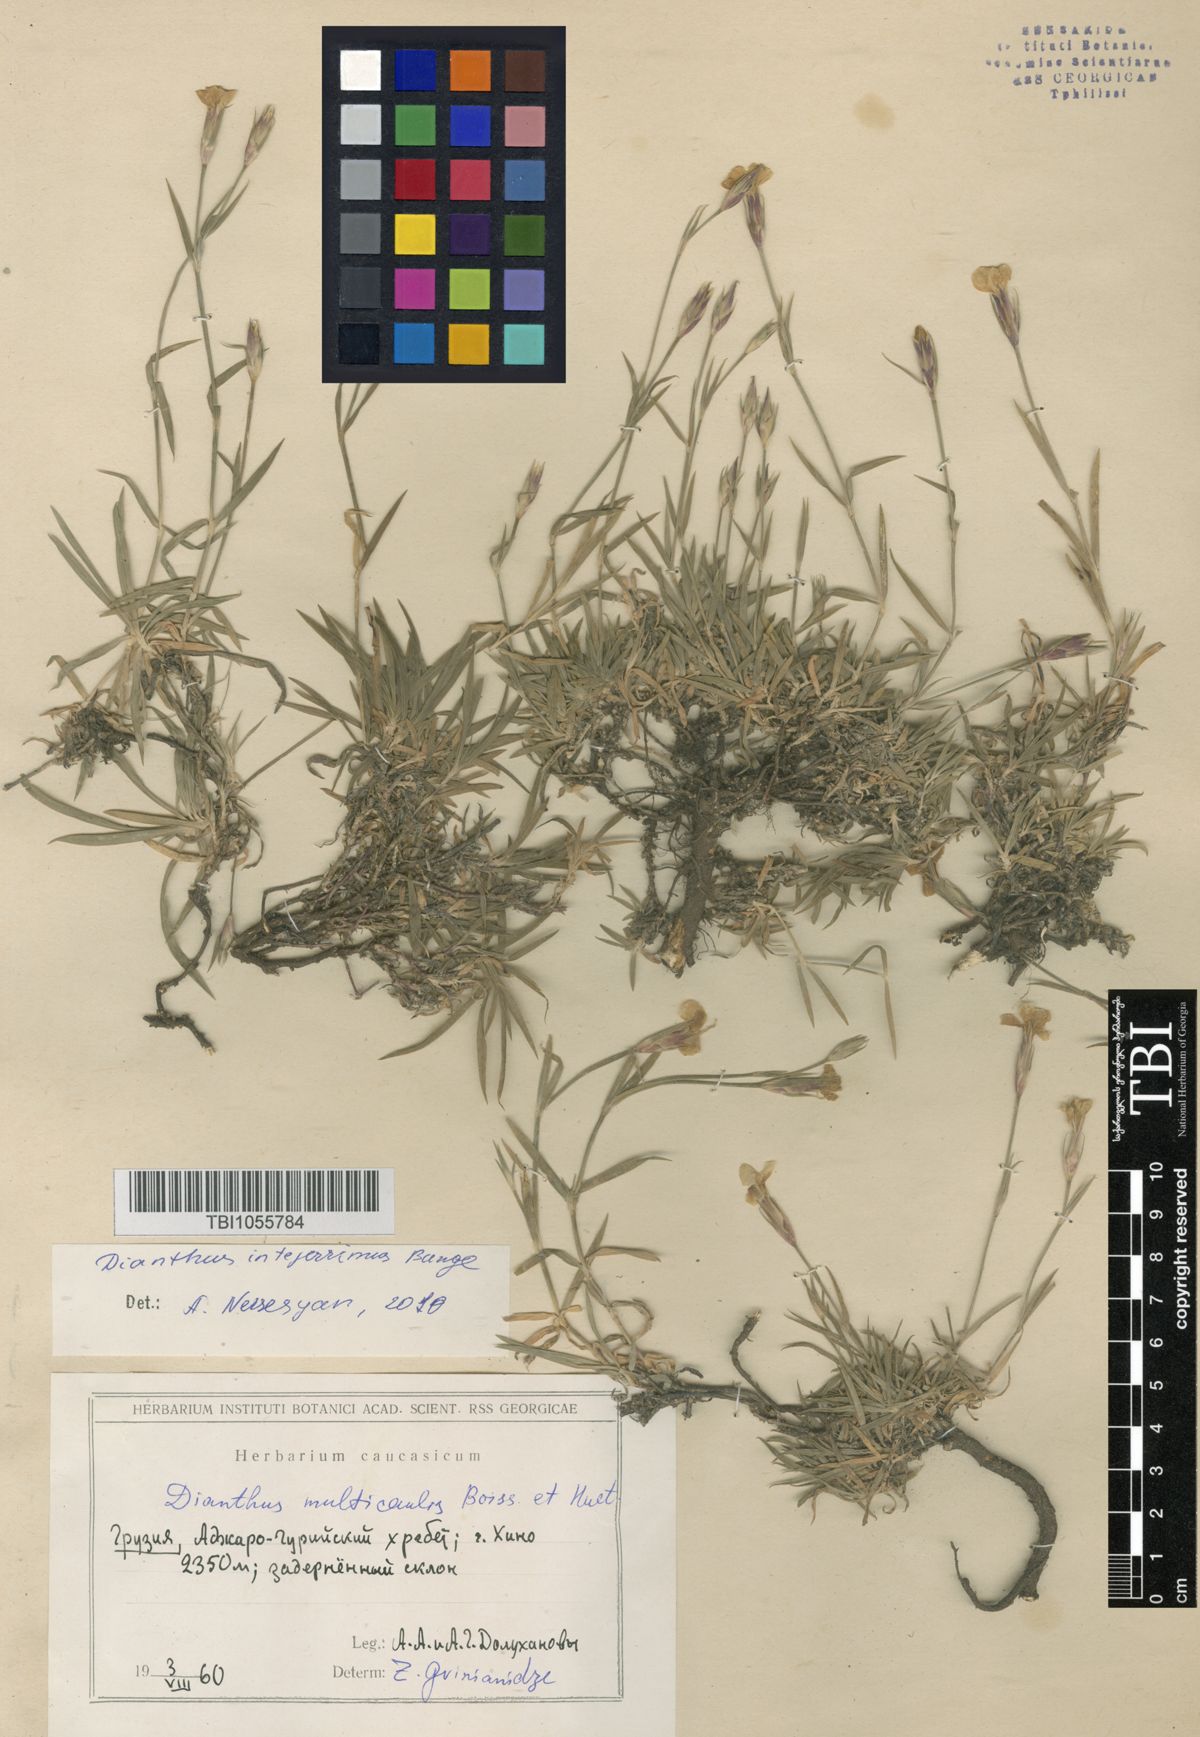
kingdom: Plantae
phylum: Tracheophyta
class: Magnoliopsida
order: Caryophyllales
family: Caryophyllaceae
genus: Dianthus
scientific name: Dianthus cretaceus
